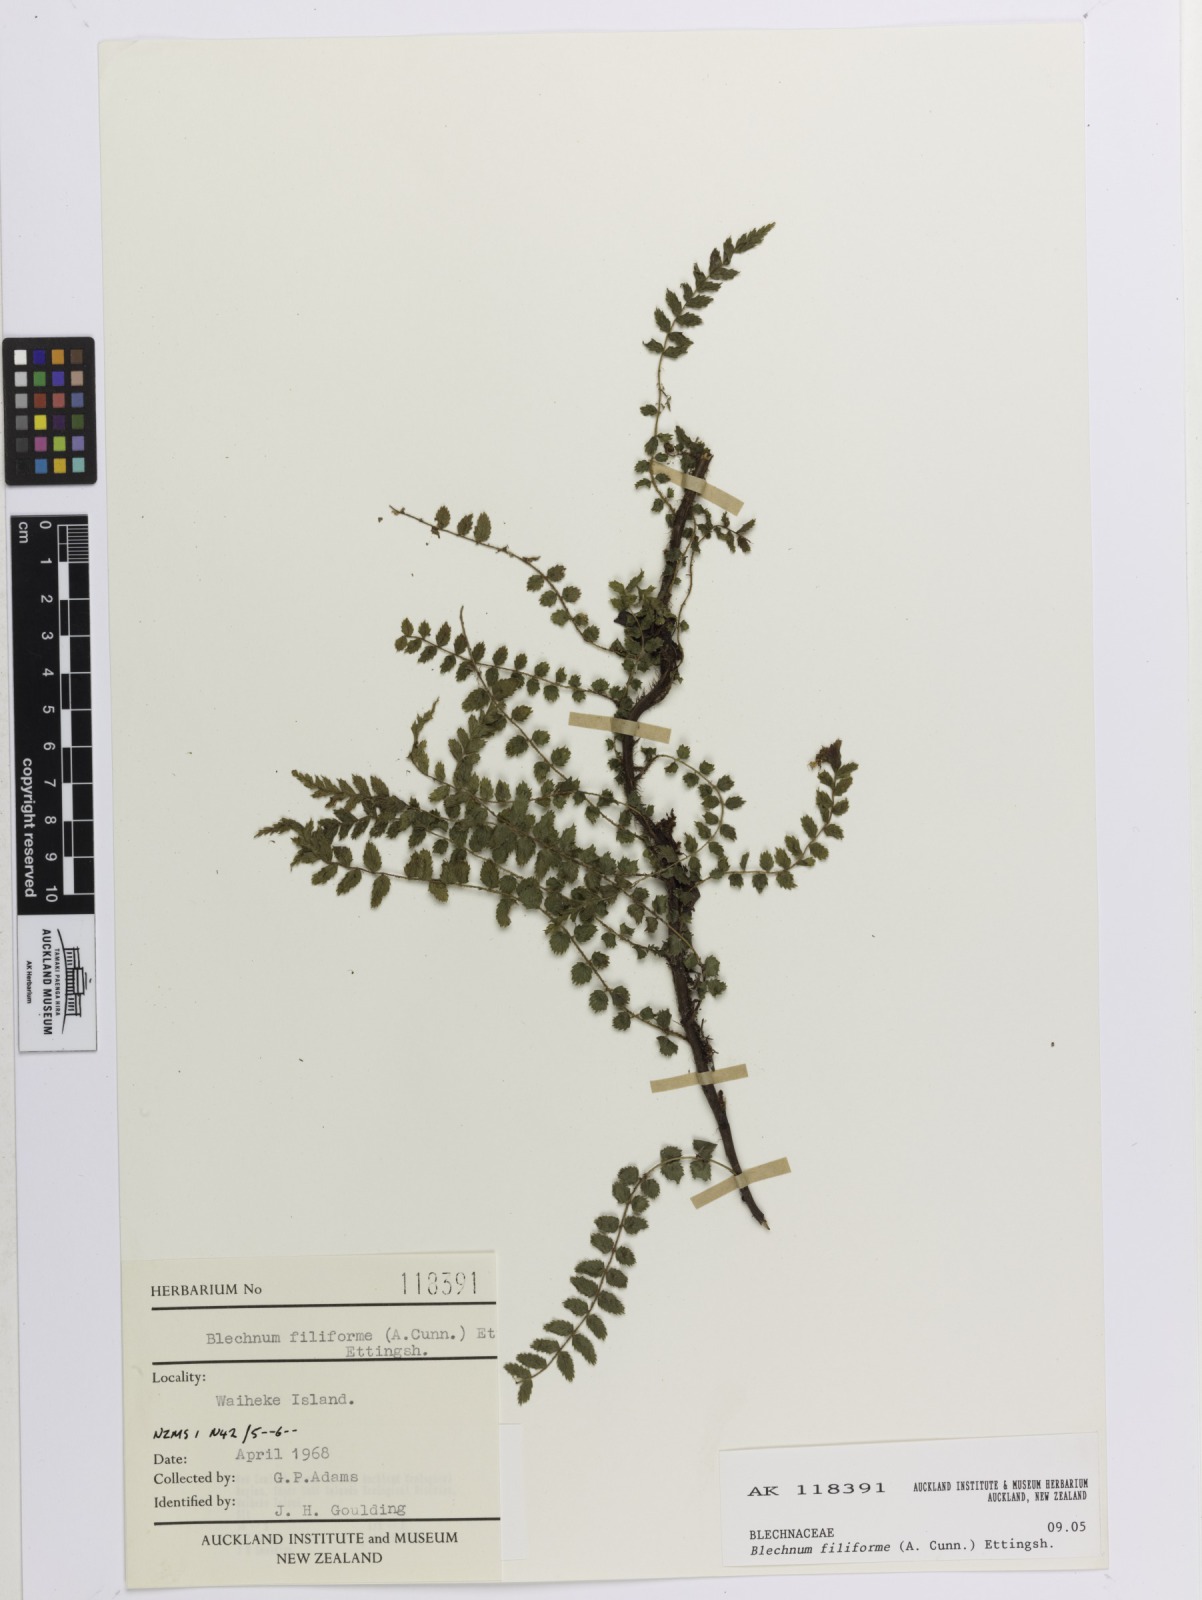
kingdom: Plantae
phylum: Tracheophyta
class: Polypodiopsida
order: Polypodiales
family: Blechnaceae
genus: Icarus
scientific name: Icarus filiformis
